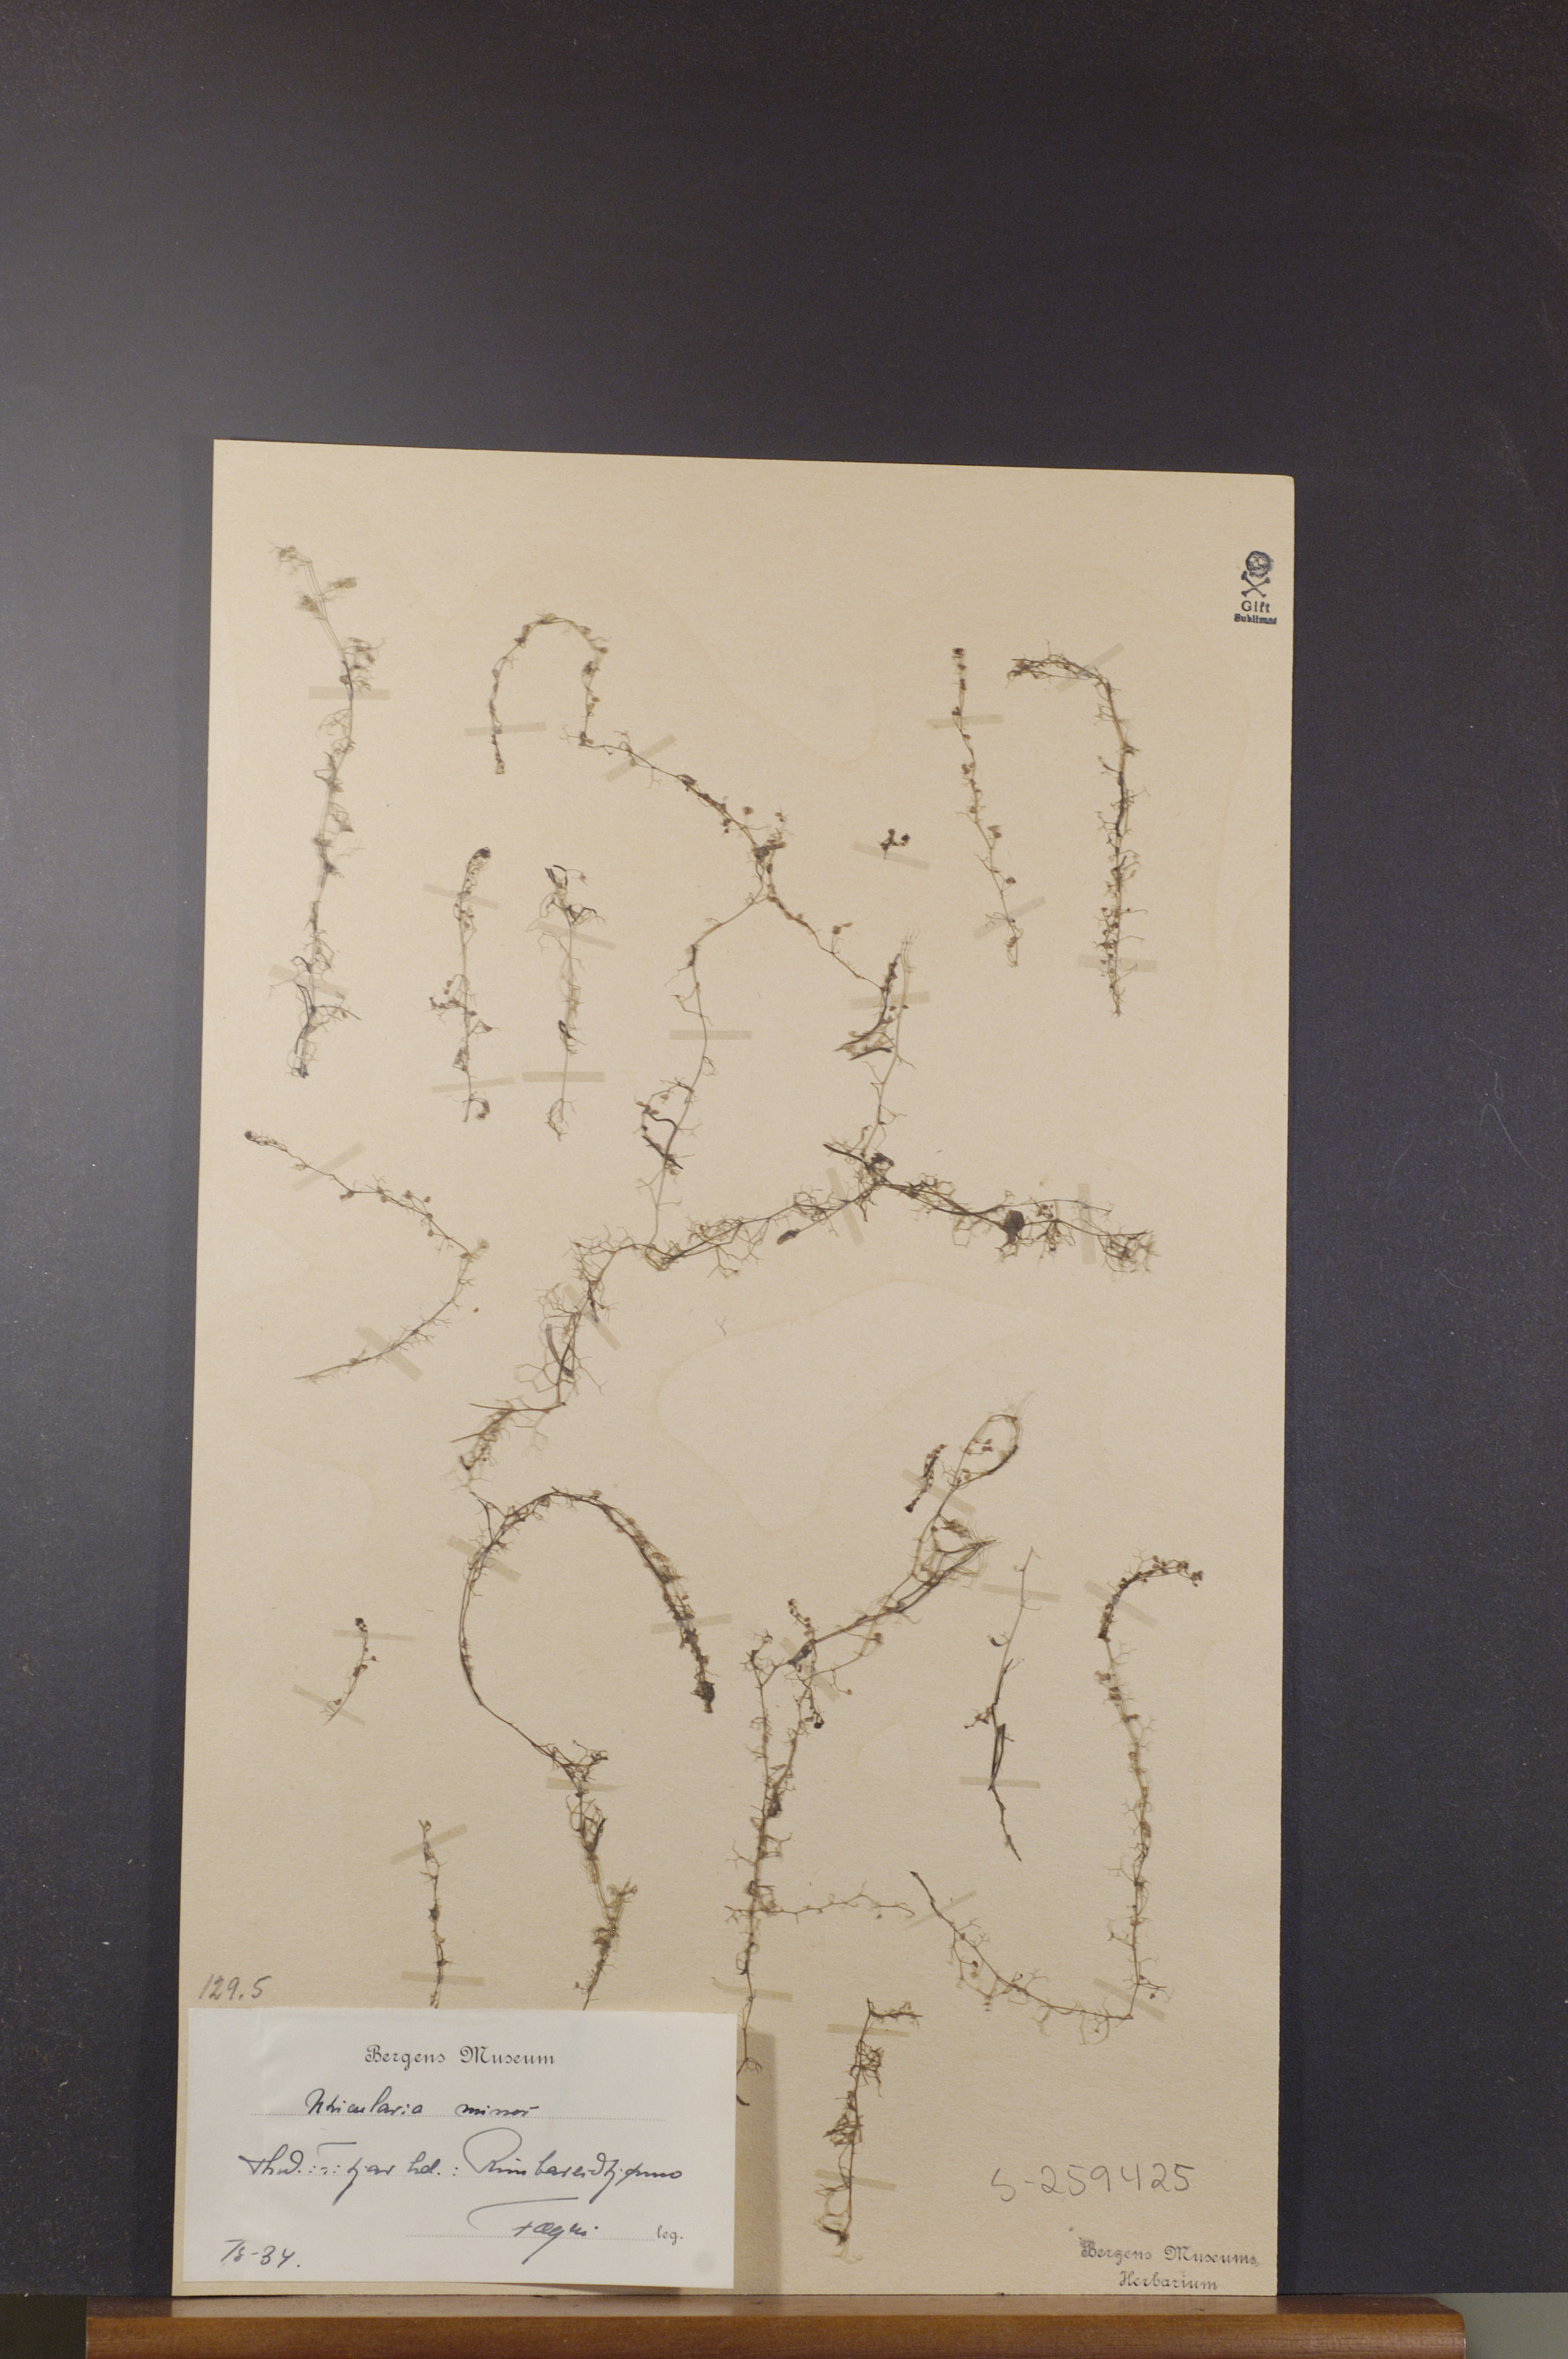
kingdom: Plantae
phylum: Tracheophyta
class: Magnoliopsida
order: Lamiales
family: Lentibulariaceae
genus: Utricularia
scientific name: Utricularia minor
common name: Lesser bladderwort
